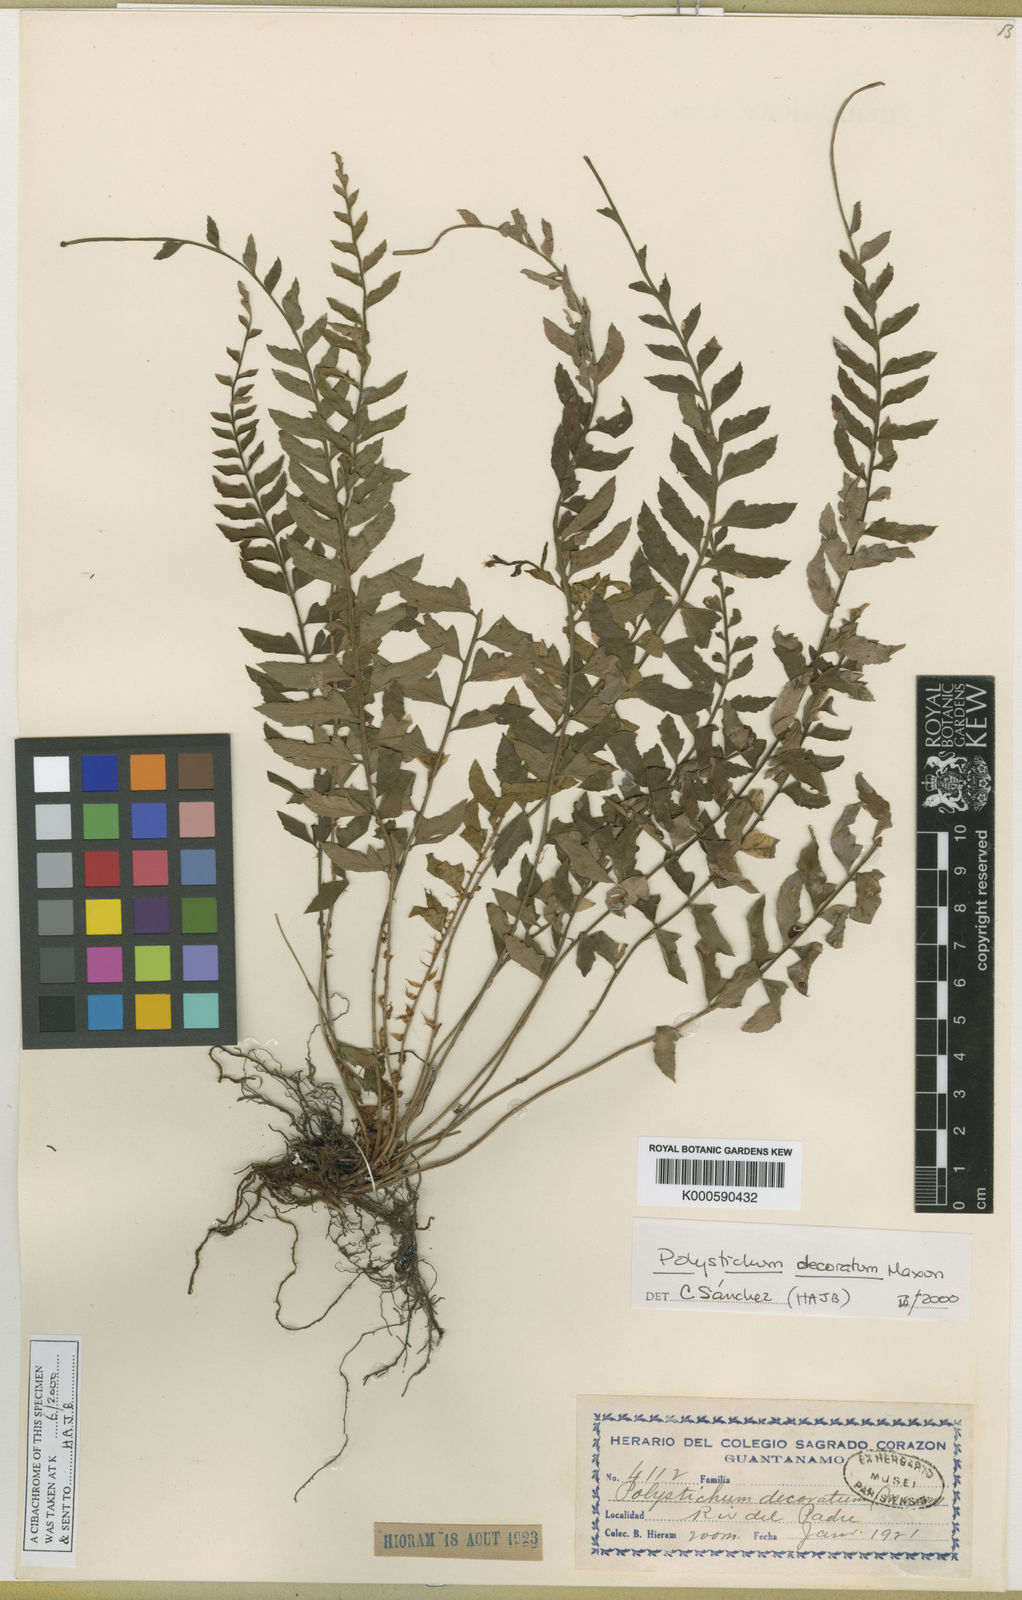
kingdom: Plantae
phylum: Tracheophyta
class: Polypodiopsida
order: Polypodiales
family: Dryopteridaceae
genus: Polystichum
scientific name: Polystichum decoratum
